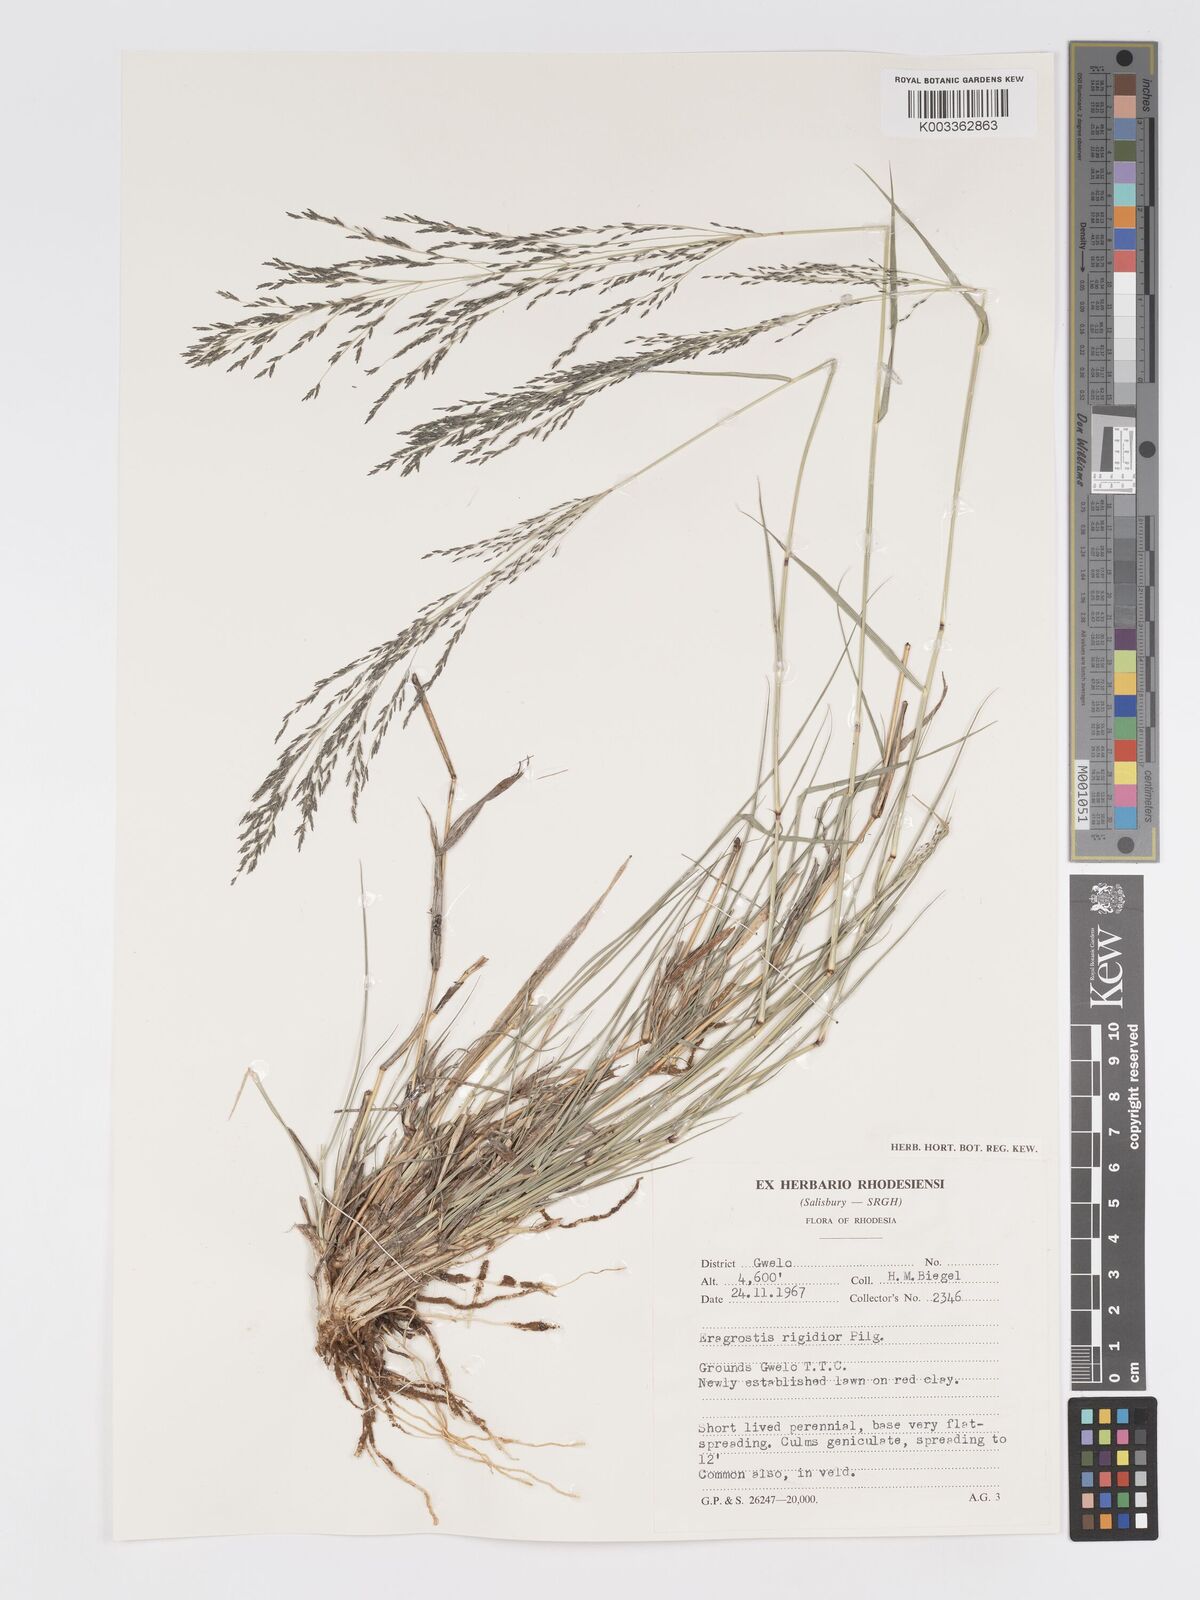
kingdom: Plantae
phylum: Tracheophyta
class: Liliopsida
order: Poales
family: Poaceae
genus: Eragrostis
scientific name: Eragrostis cylindriflora
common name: Cylinderflower lovegrass
